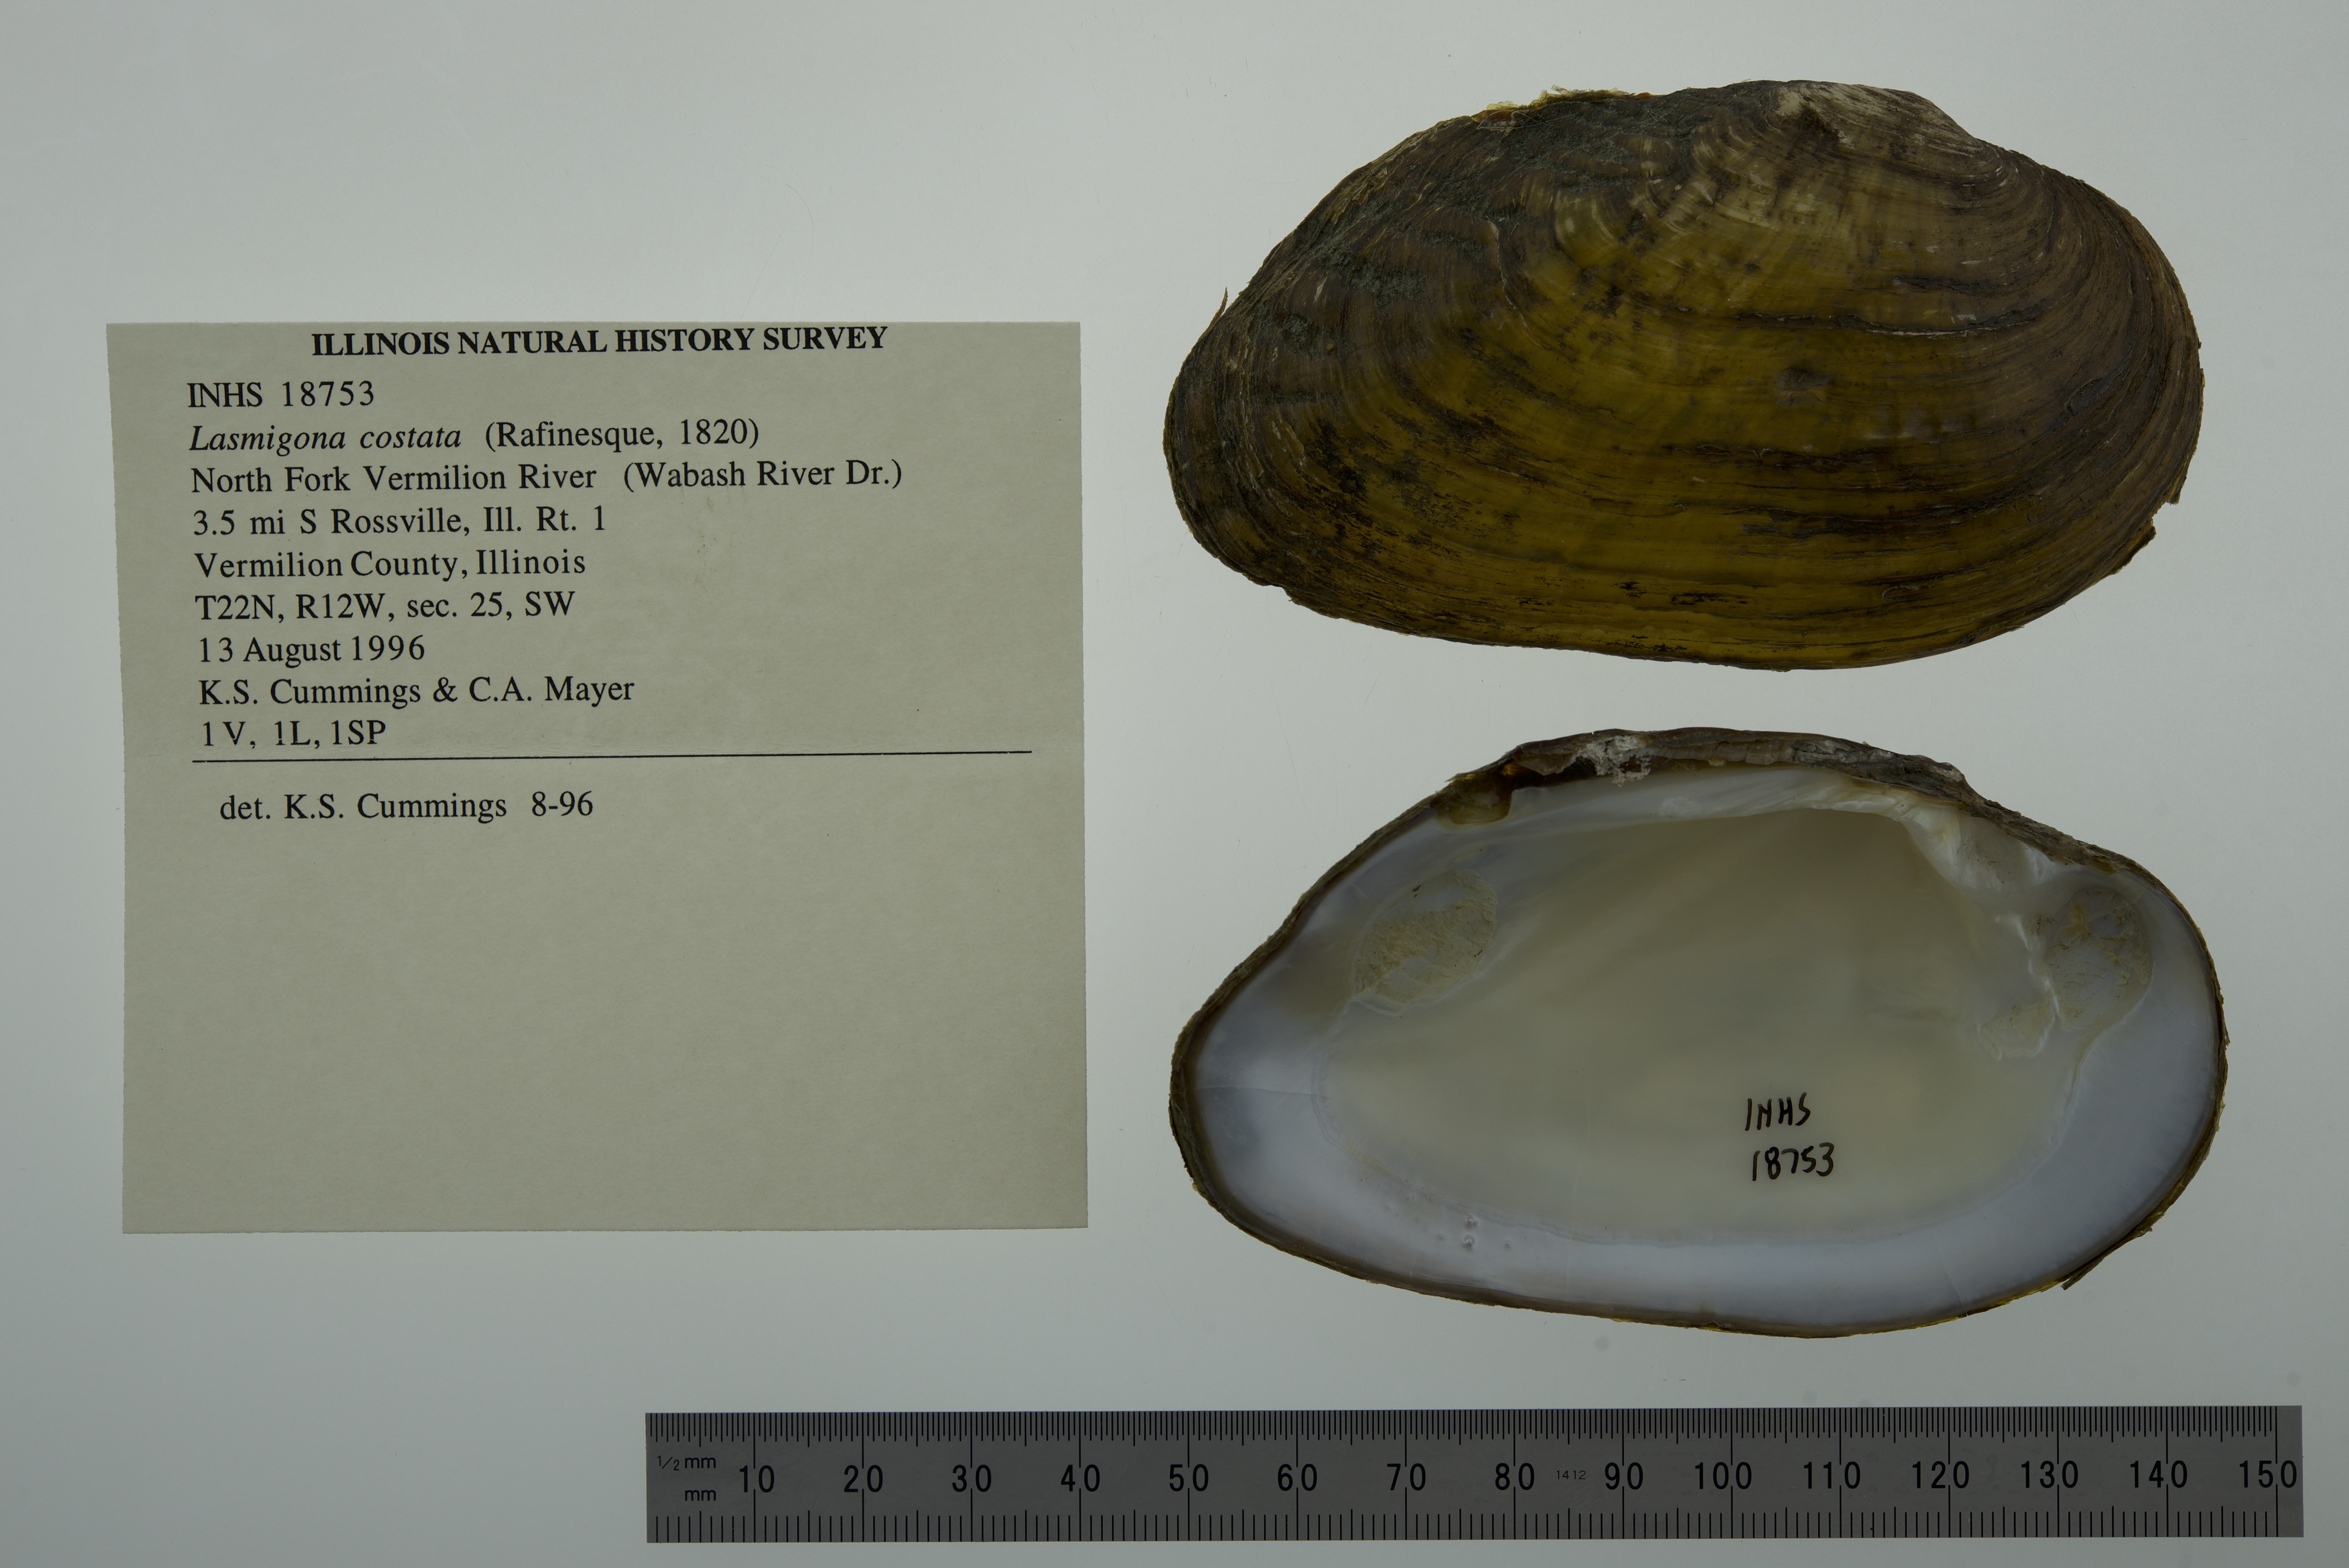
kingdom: Animalia
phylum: Mollusca
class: Bivalvia
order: Unionida
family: Unionidae
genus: Lasmigona
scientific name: Lasmigona costata
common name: Flutedshell
